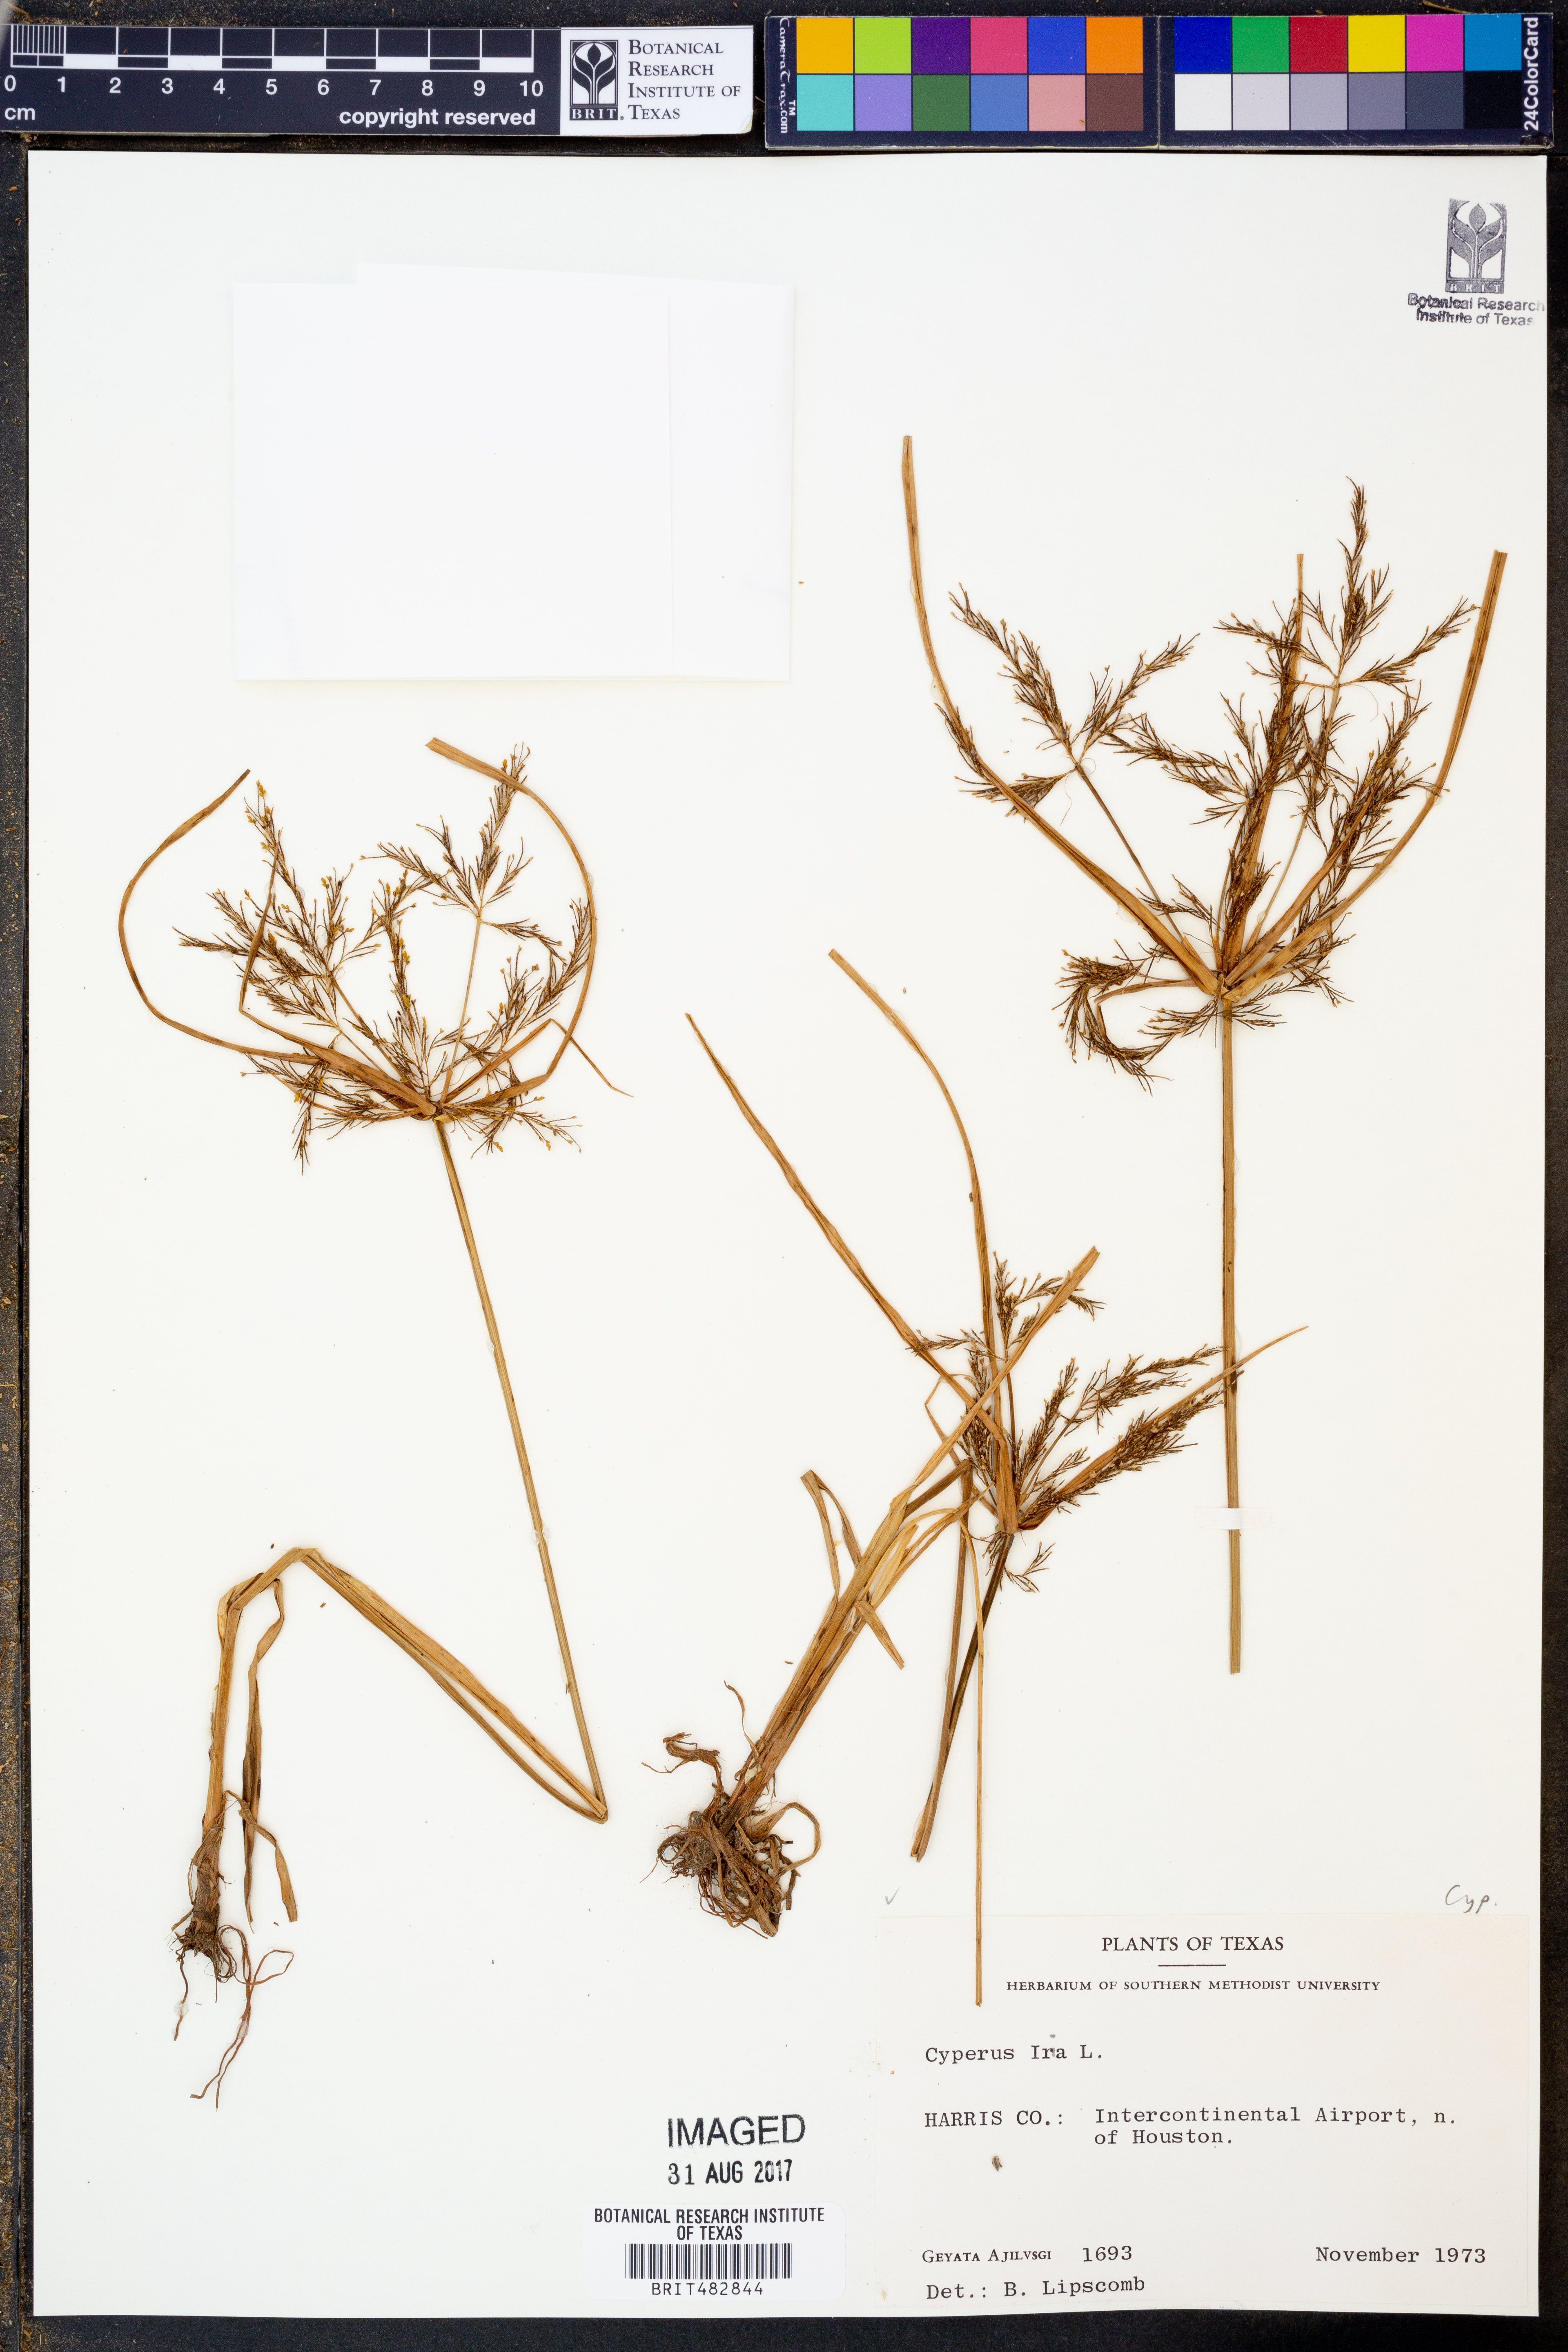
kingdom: Plantae
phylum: Tracheophyta
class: Liliopsida
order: Poales
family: Cyperaceae
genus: Cyperus
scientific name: Cyperus iria
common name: Ricefield flatsedge
